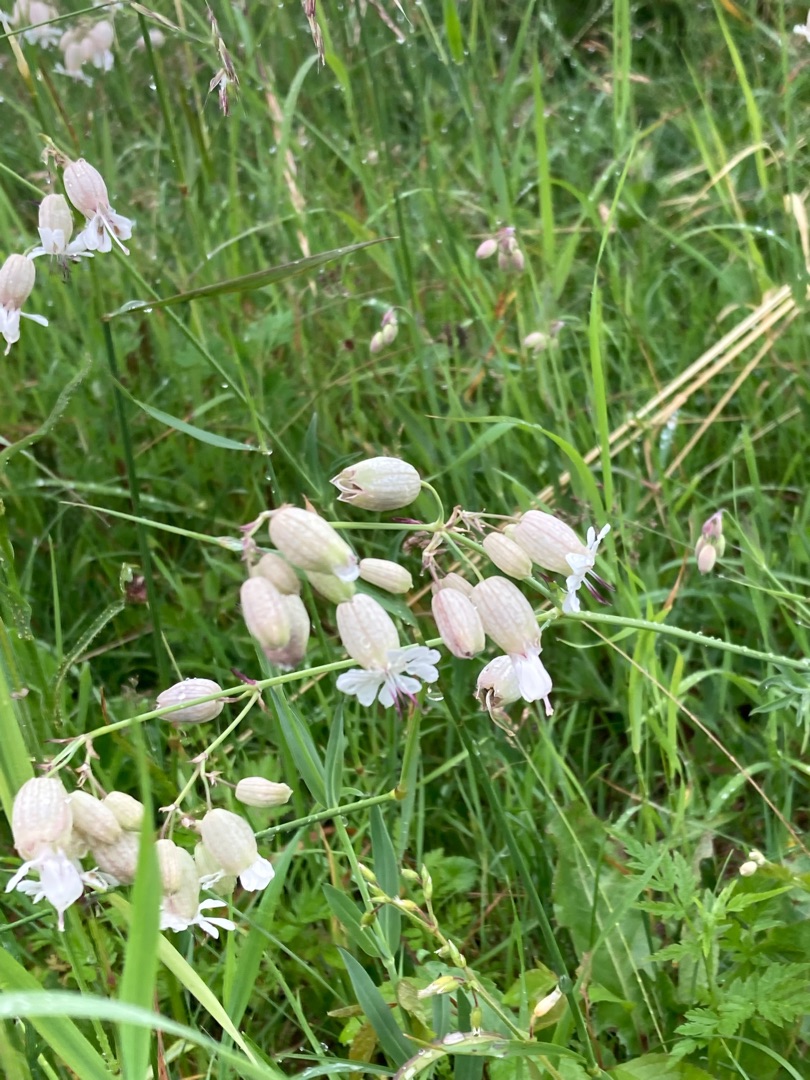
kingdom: Plantae
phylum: Tracheophyta
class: Magnoliopsida
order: Caryophyllales
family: Caryophyllaceae
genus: Silene
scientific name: Silene vulgaris
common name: Blæresmælde
